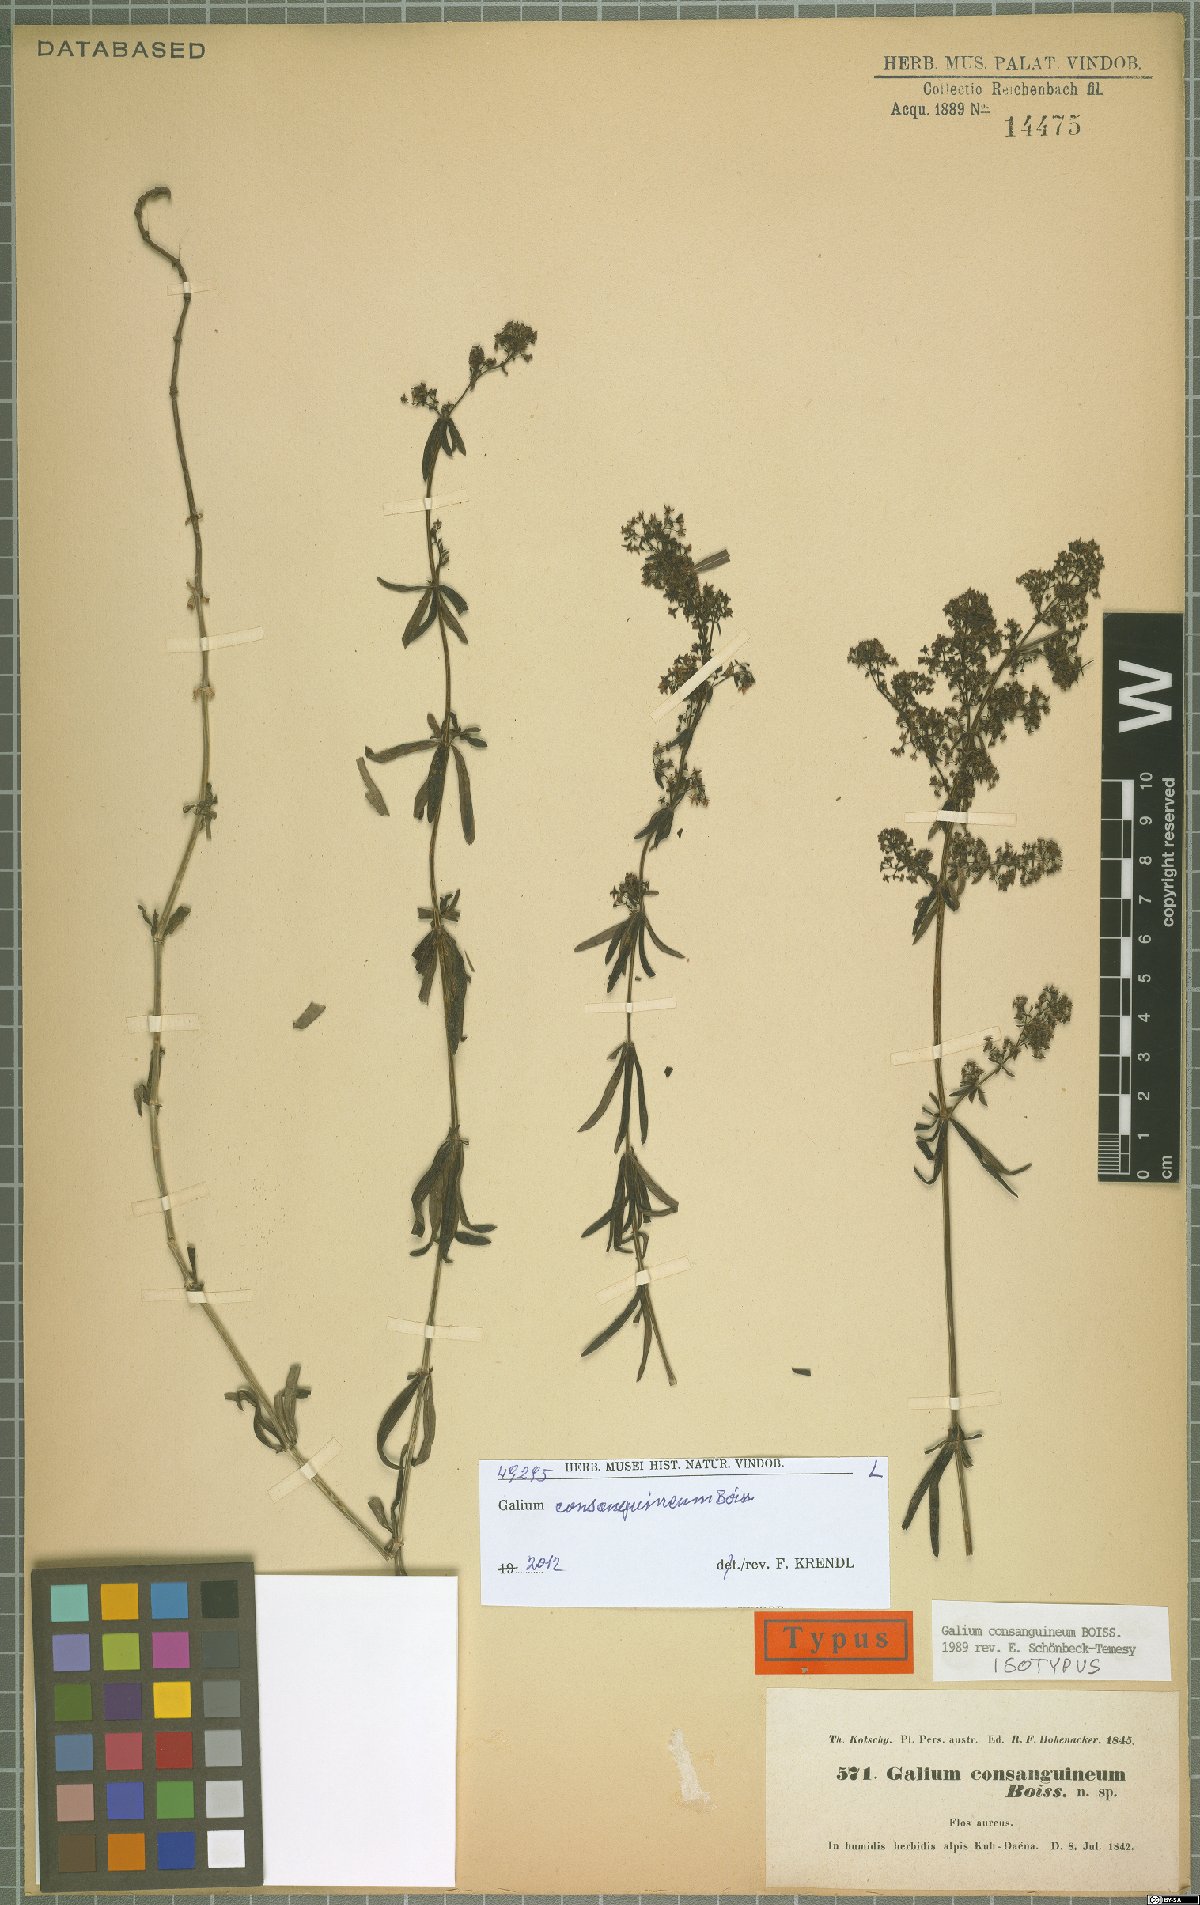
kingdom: Plantae
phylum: Tracheophyta
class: Magnoliopsida
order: Gentianales
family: Rubiaceae
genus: Galium
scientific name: Galium consanguineum
